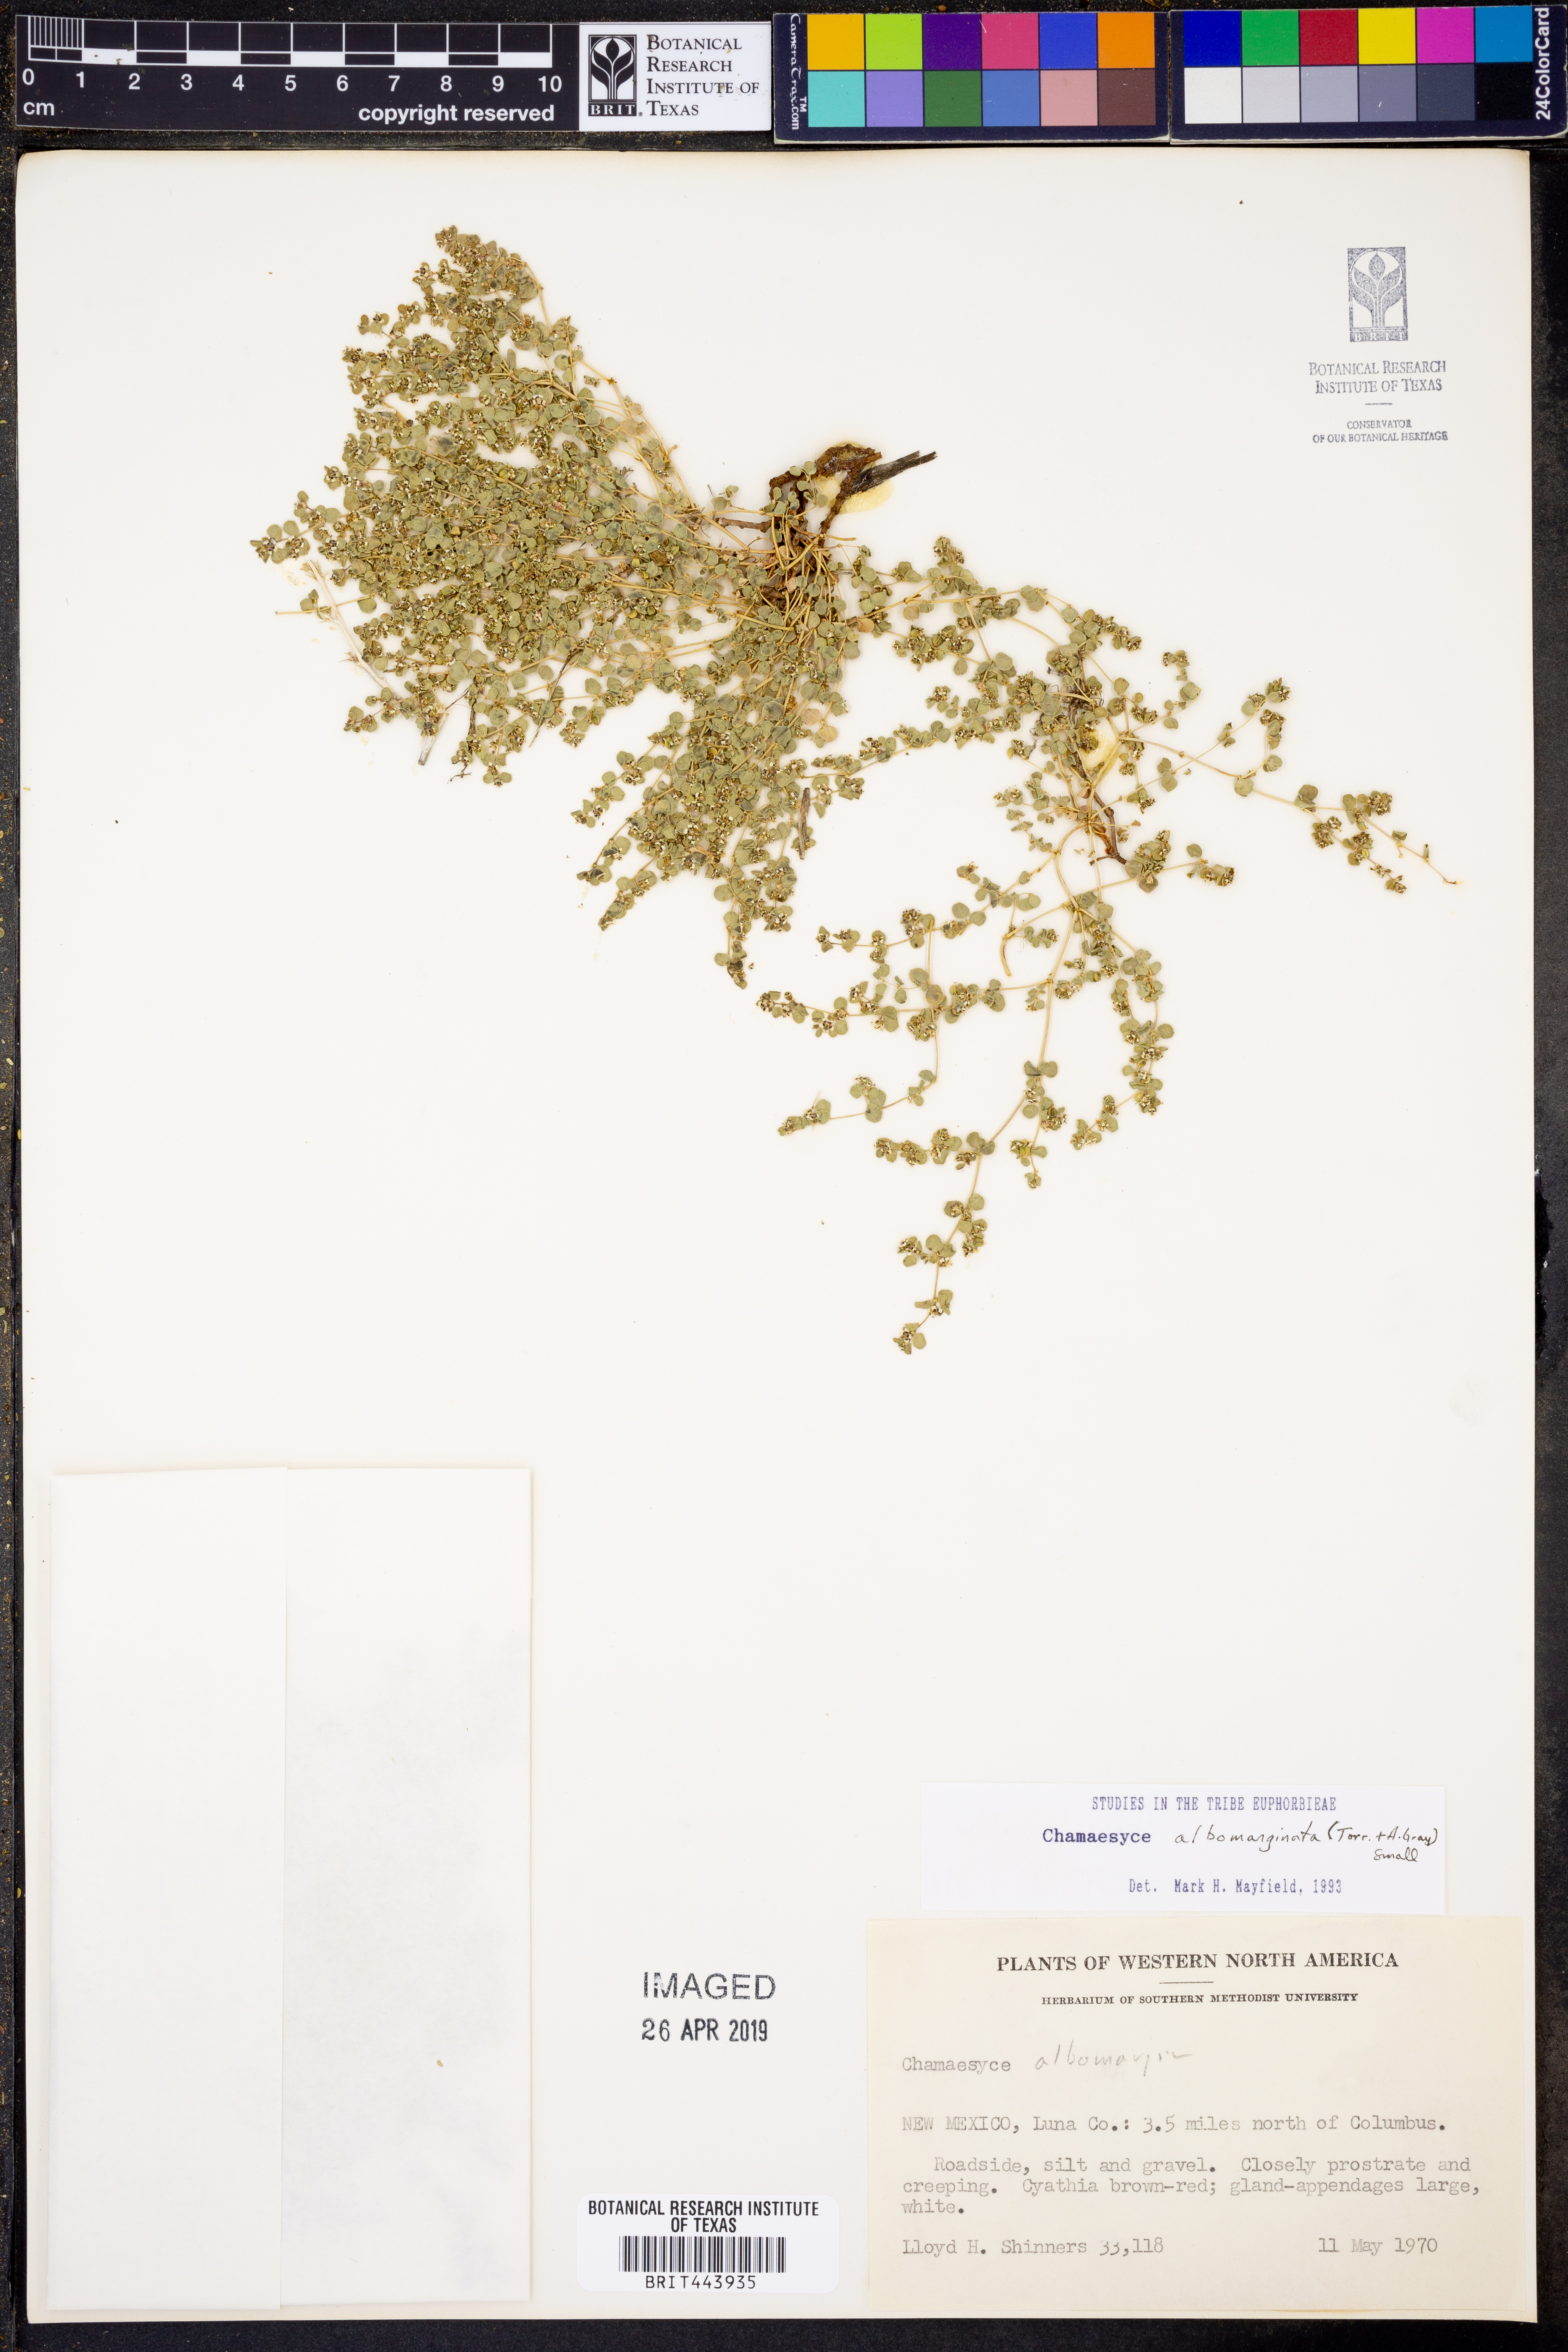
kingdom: Plantae
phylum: Tracheophyta
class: Magnoliopsida
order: Malpighiales
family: Euphorbiaceae
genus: Euphorbia
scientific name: Euphorbia albomarginata
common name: Whitemargin sandmat
